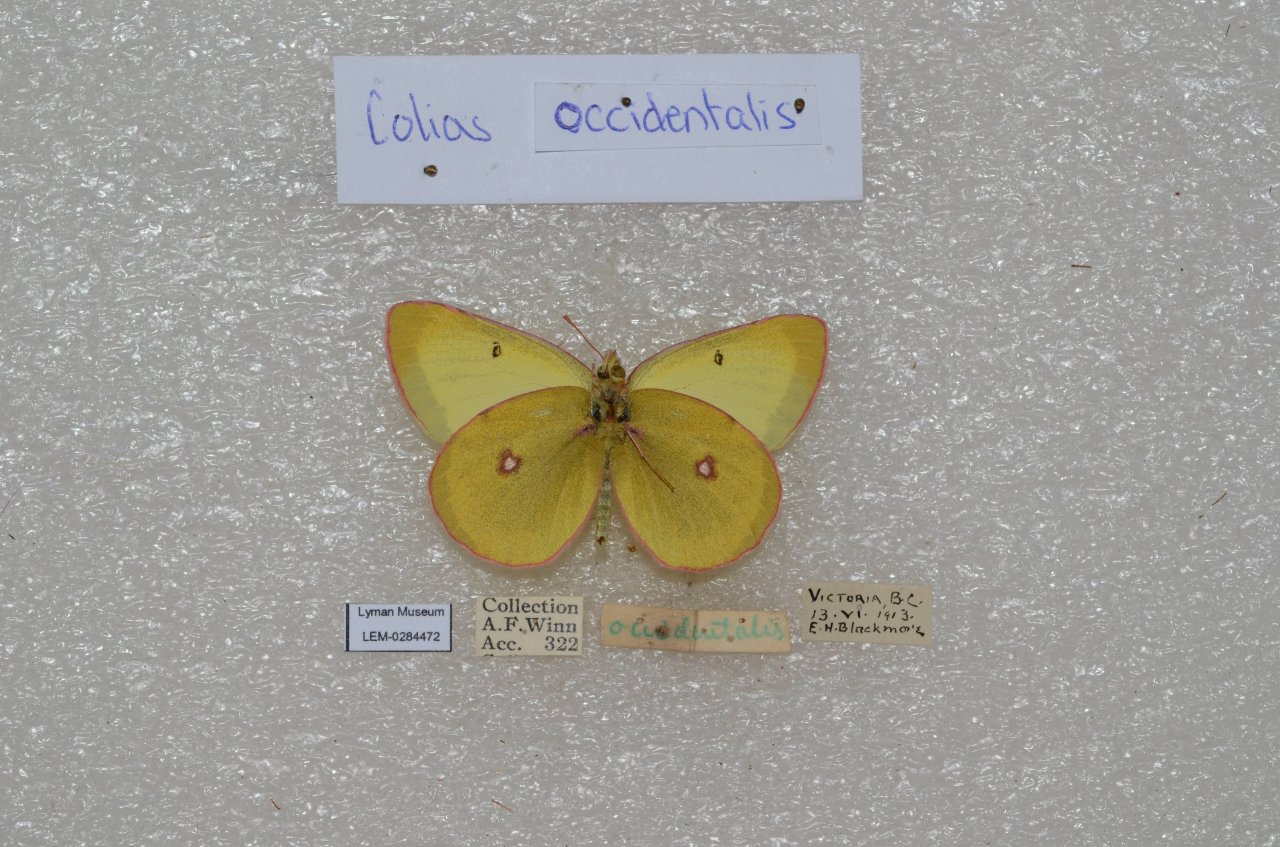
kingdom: Animalia
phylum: Arthropoda
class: Insecta
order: Lepidoptera
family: Pieridae
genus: Colias
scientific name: Colias occidentalis
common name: Western Sulphur
